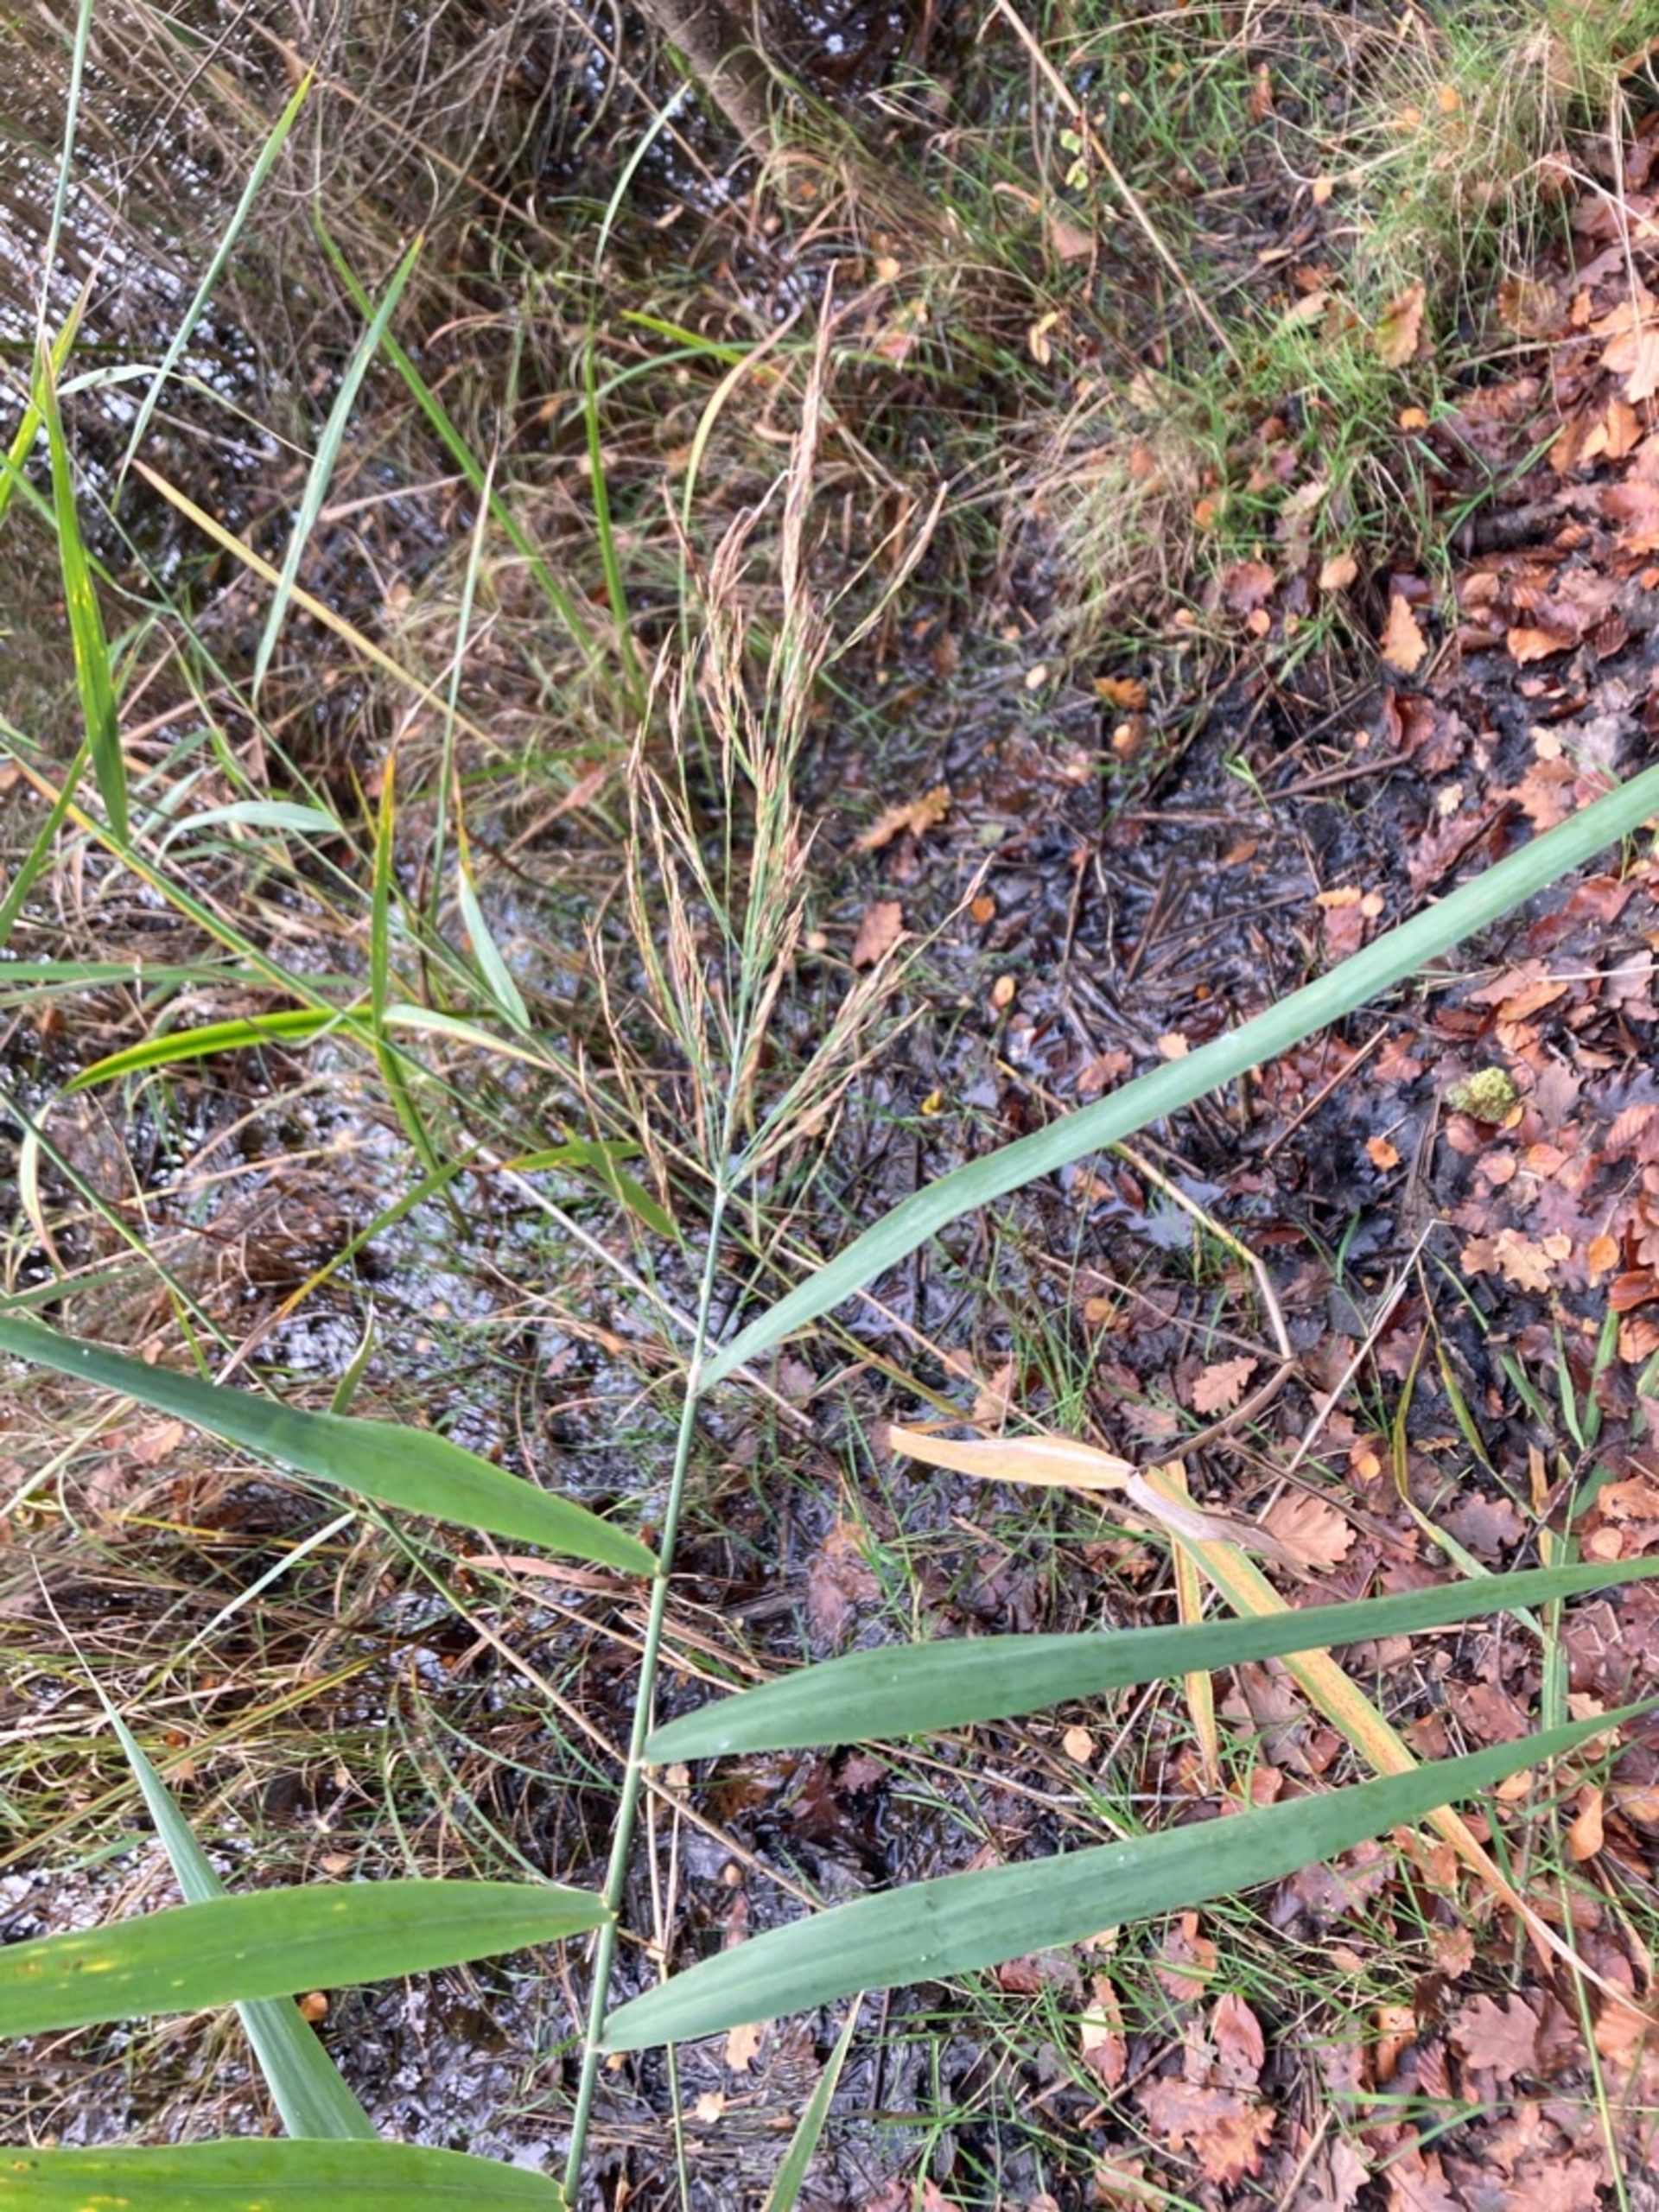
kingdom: Plantae
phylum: Tracheophyta
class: Liliopsida
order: Poales
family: Poaceae
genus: Phragmites
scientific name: Phragmites australis
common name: Tagrør
